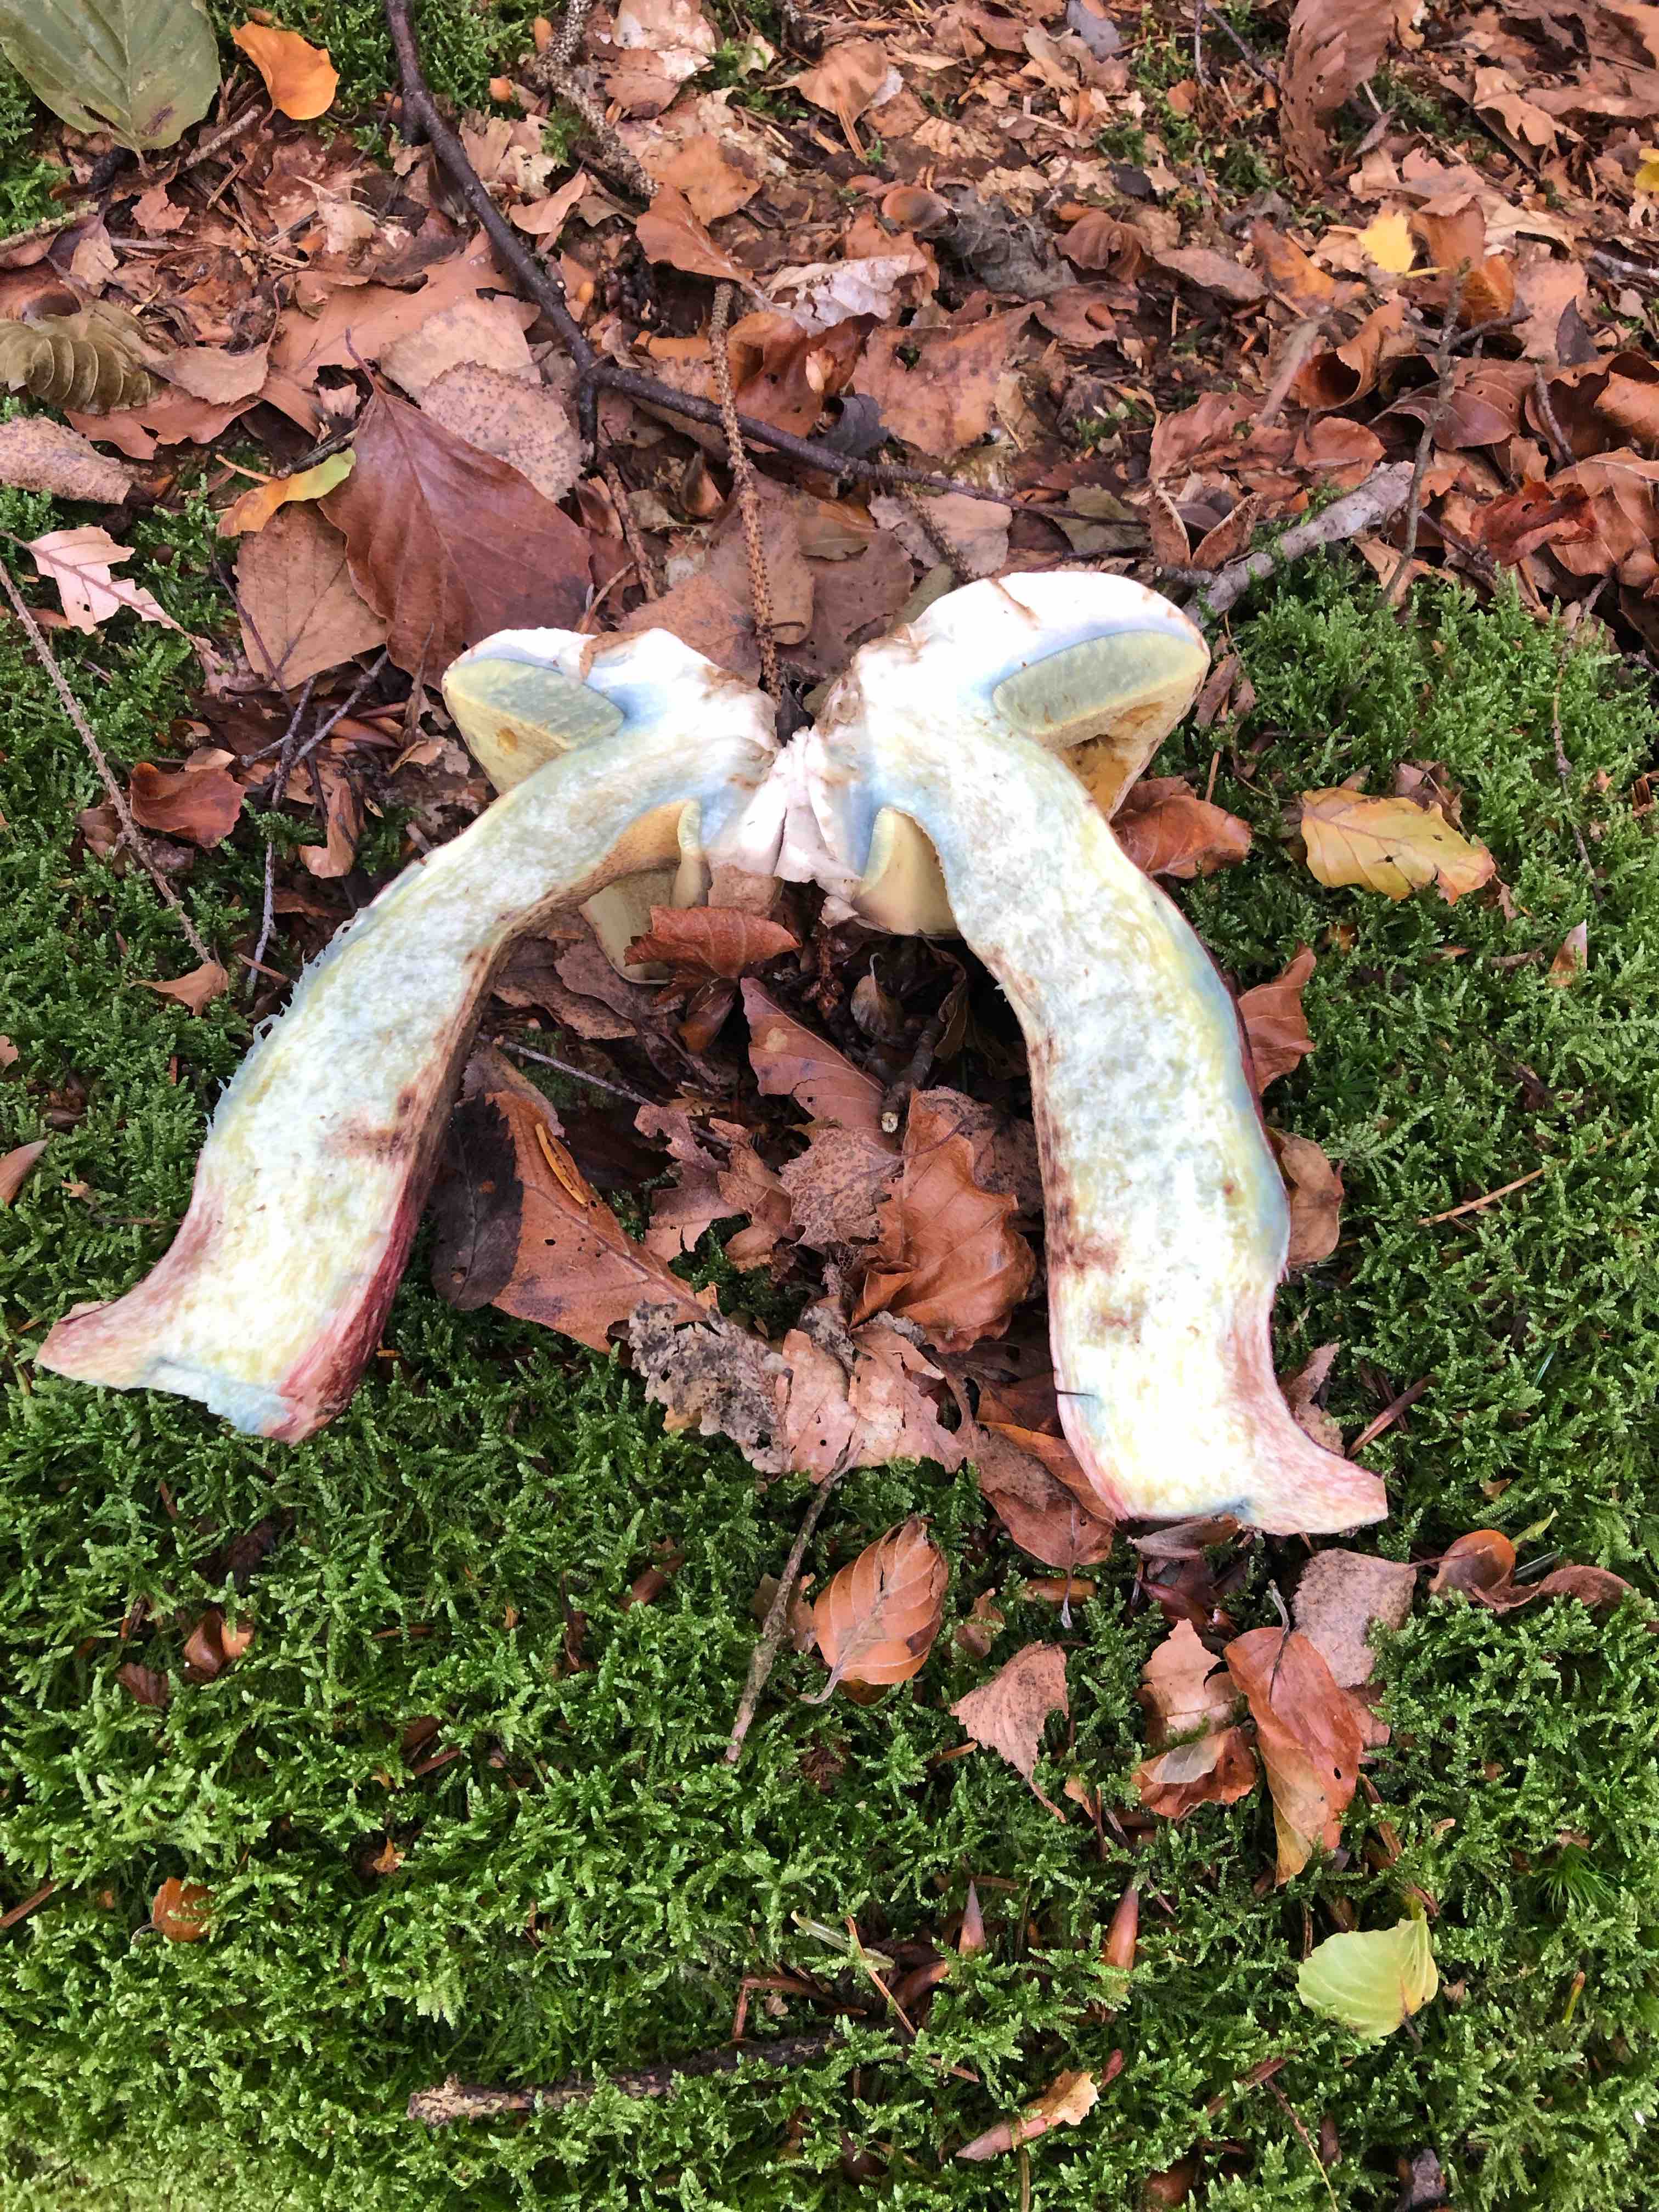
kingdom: Fungi
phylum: Basidiomycota
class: Agaricomycetes
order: Boletales
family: Boletaceae
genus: Caloboletus
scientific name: Caloboletus calopus
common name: skønfodet rørhat
